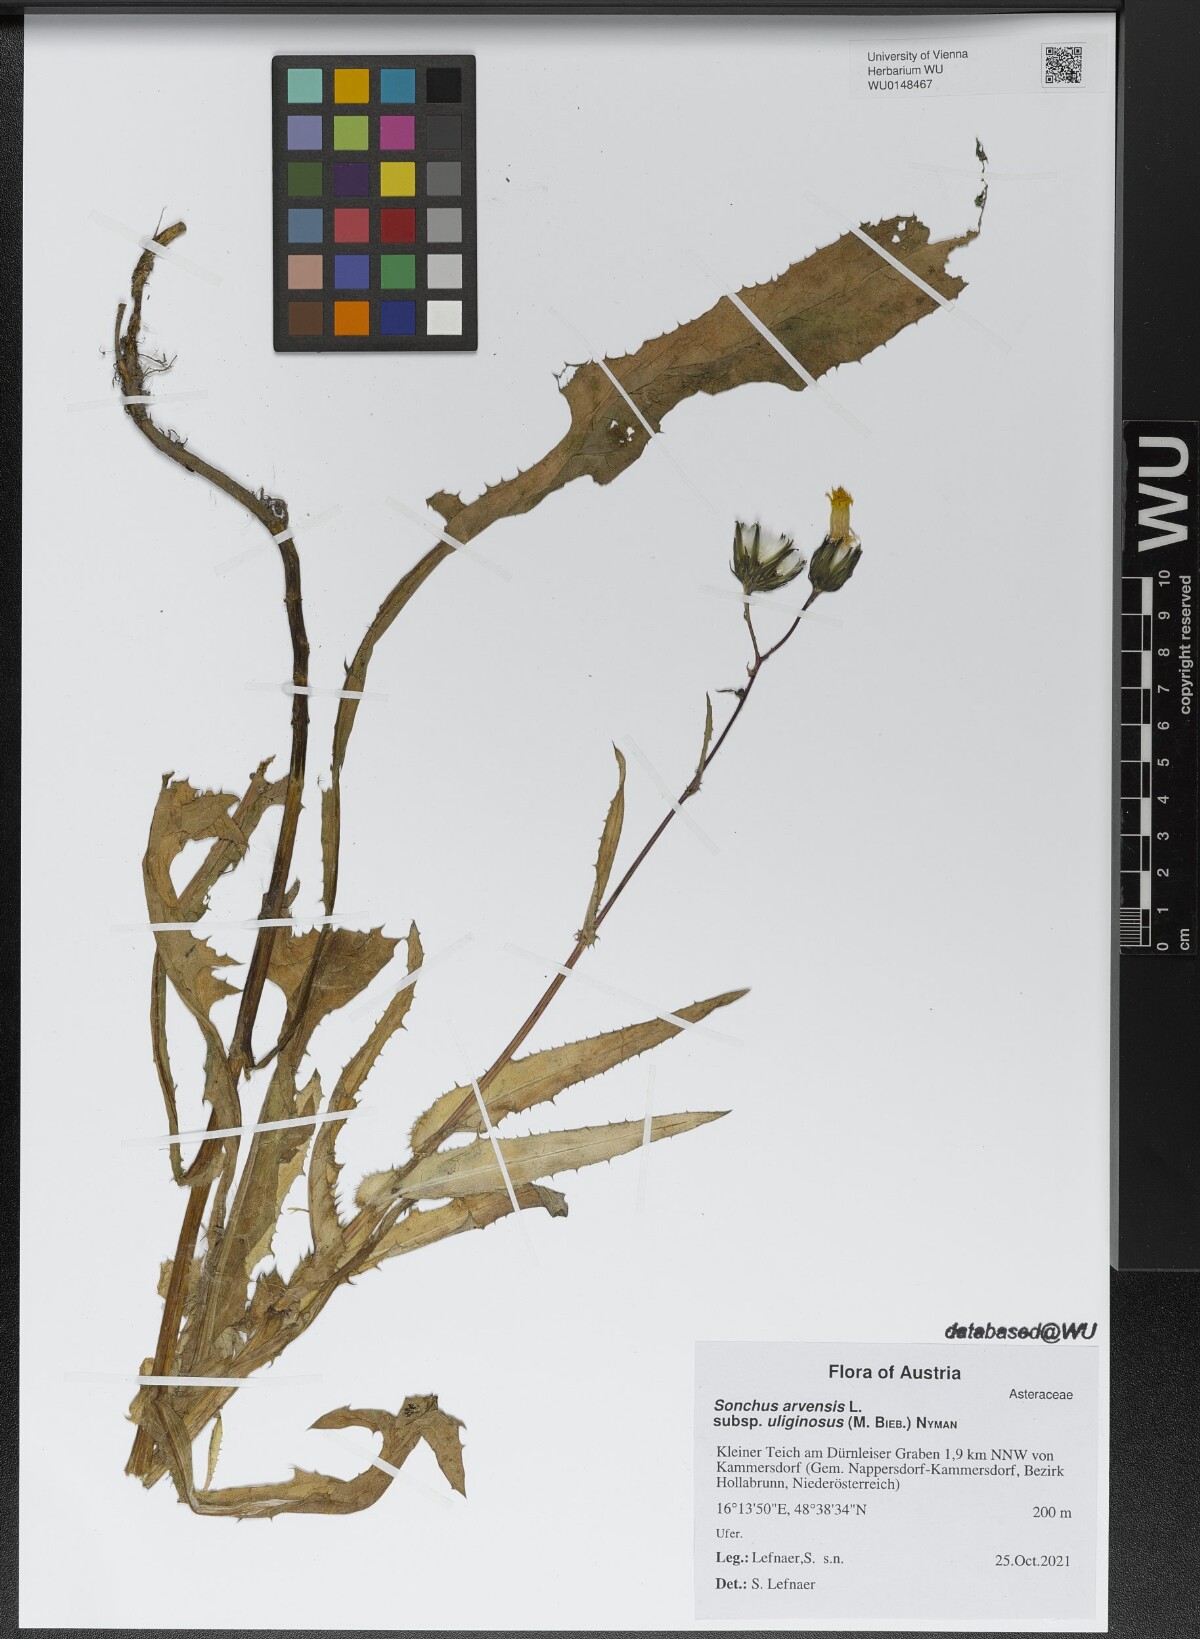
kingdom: Plantae
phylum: Tracheophyta
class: Magnoliopsida
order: Asterales
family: Asteraceae
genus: Sonchus
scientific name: Sonchus arvensis
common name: Perennial sow-thistle
